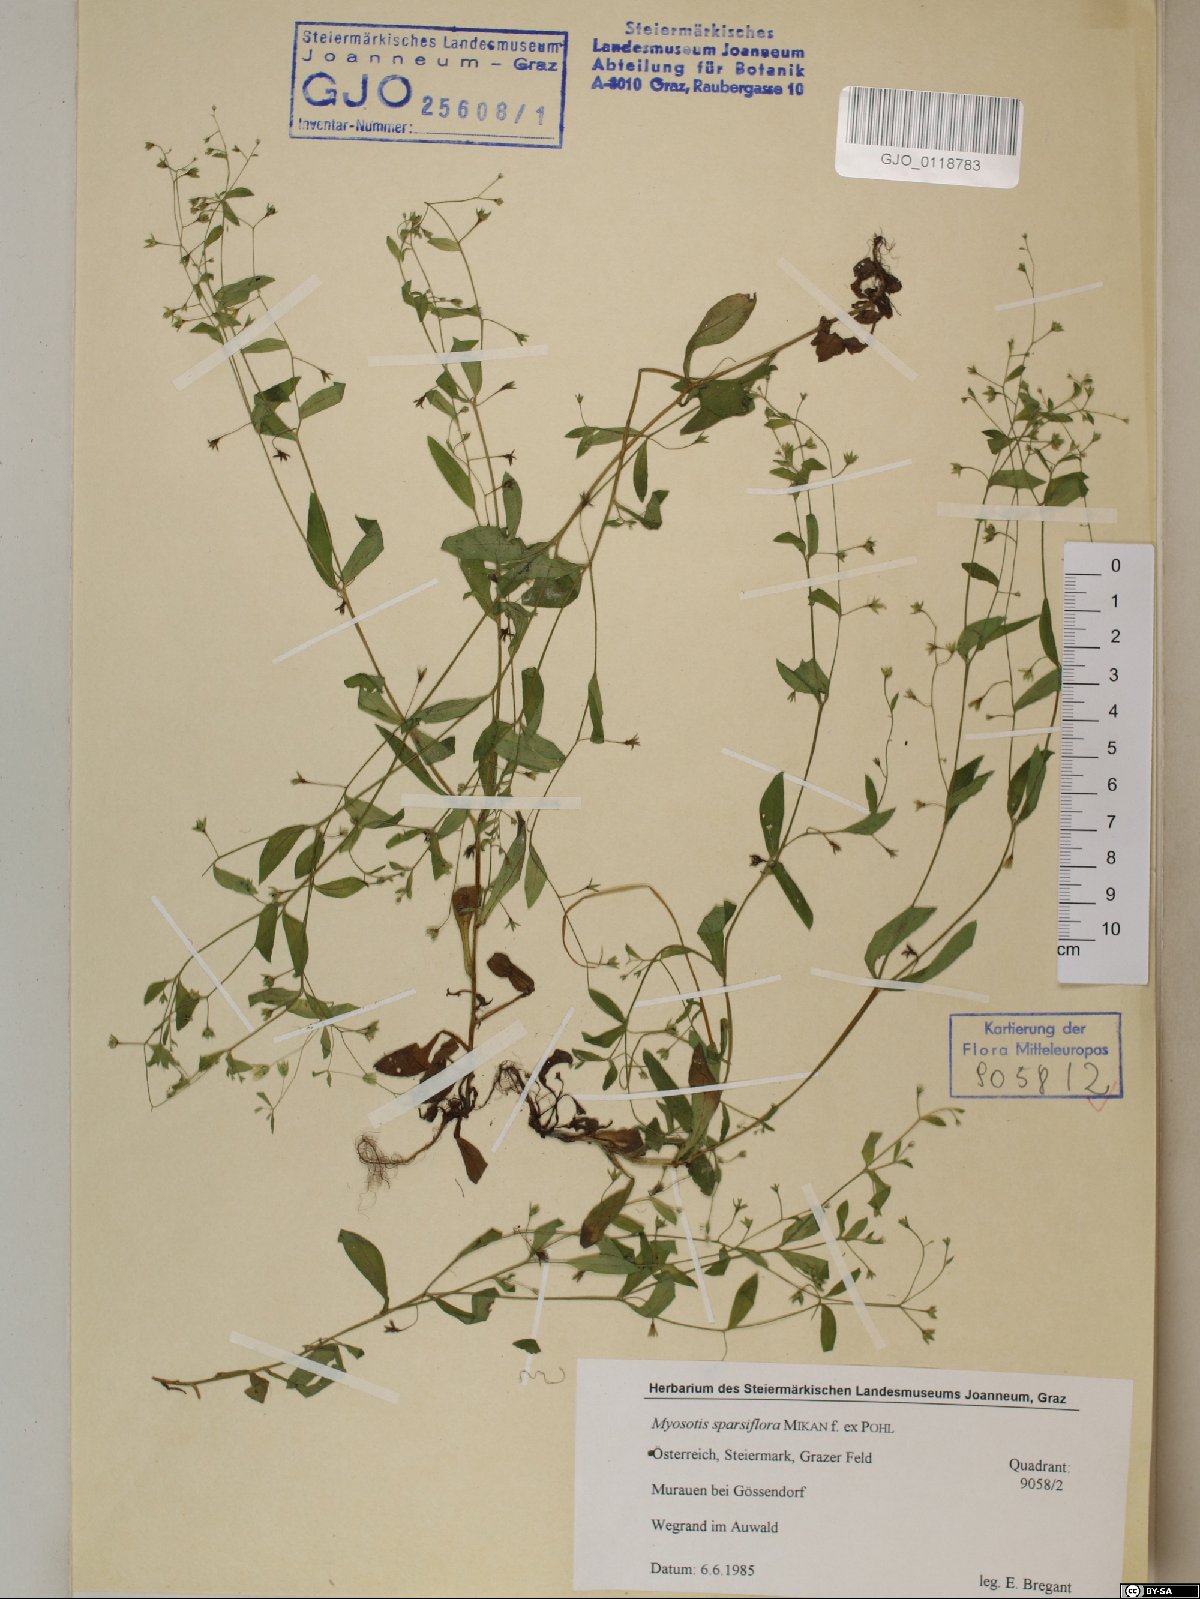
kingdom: Plantae
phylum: Tracheophyta
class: Magnoliopsida
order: Boraginales
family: Boraginaceae
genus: Myosotis
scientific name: Myosotis sparsiflora
